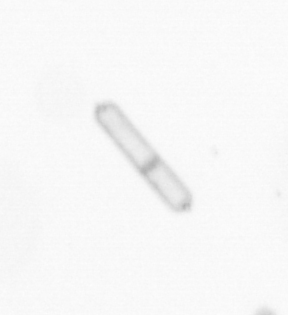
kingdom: Chromista
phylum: Ochrophyta
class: Bacillariophyceae
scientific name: Bacillariophyceae
